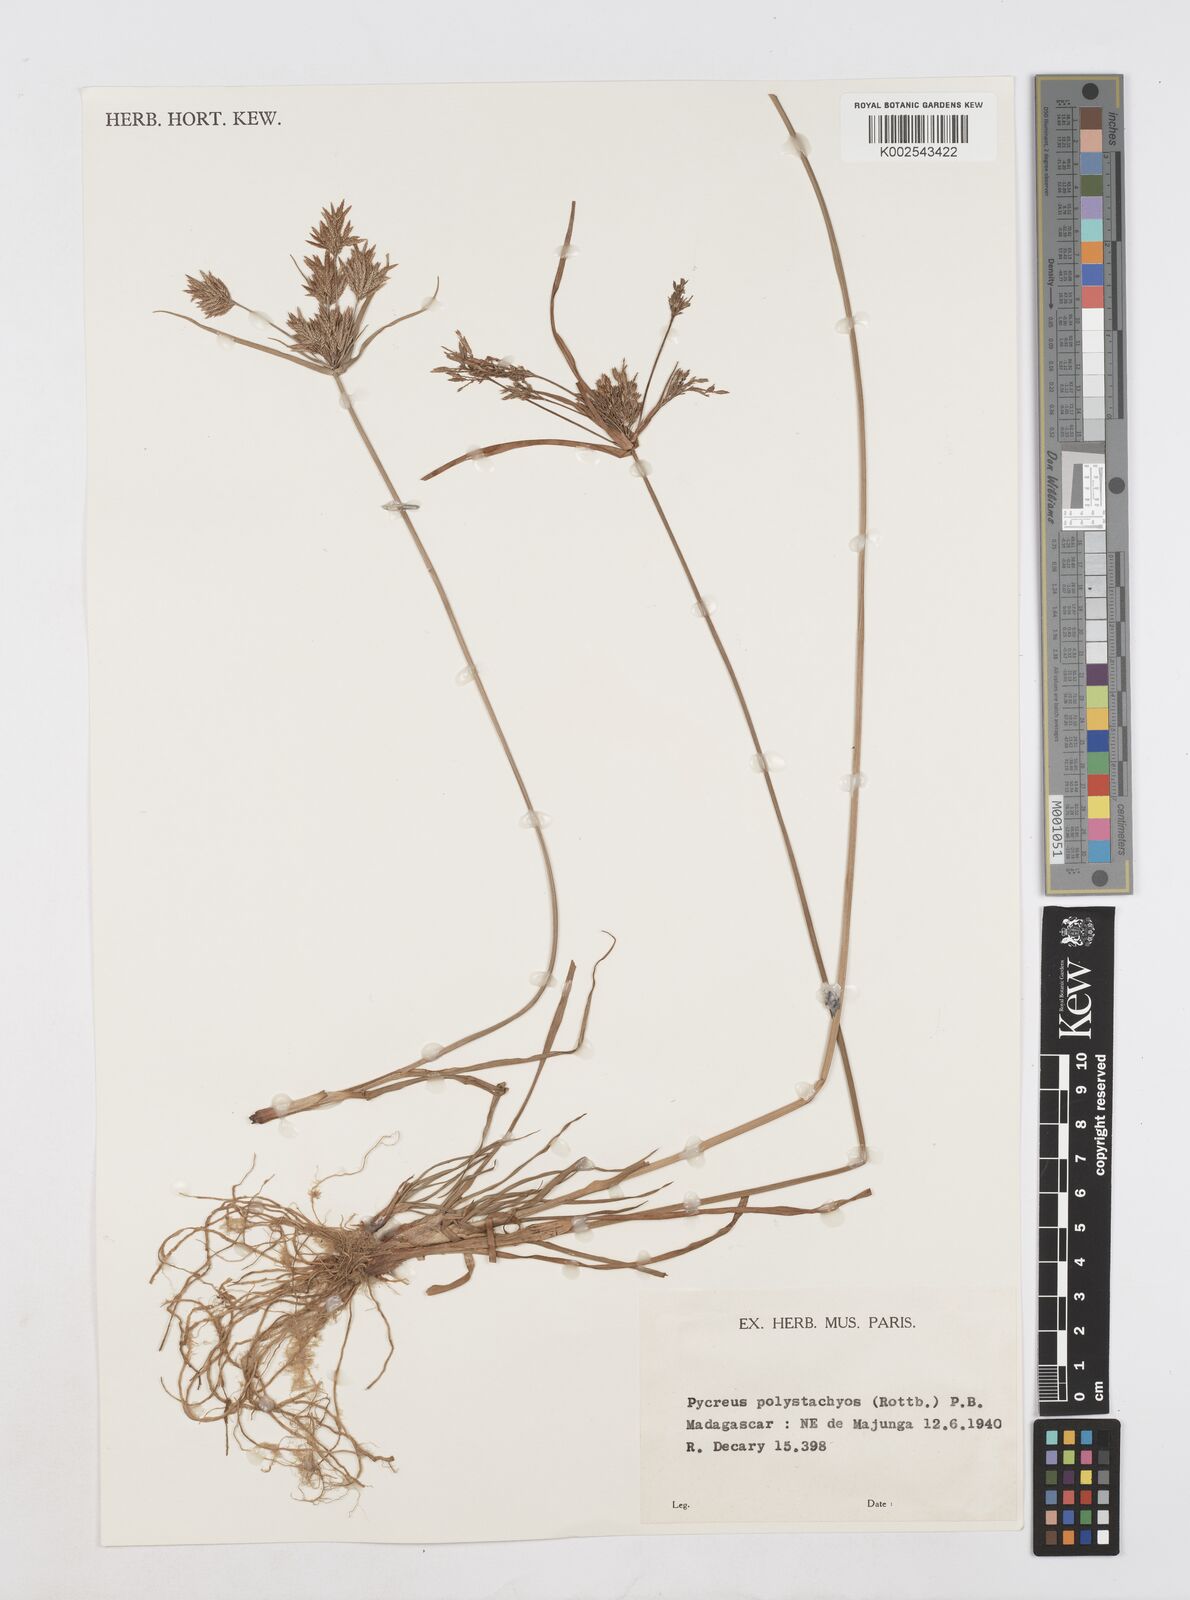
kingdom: Plantae
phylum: Tracheophyta
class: Liliopsida
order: Poales
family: Cyperaceae
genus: Cyperus
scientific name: Cyperus polystachyos
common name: Bunchy flat sedge
